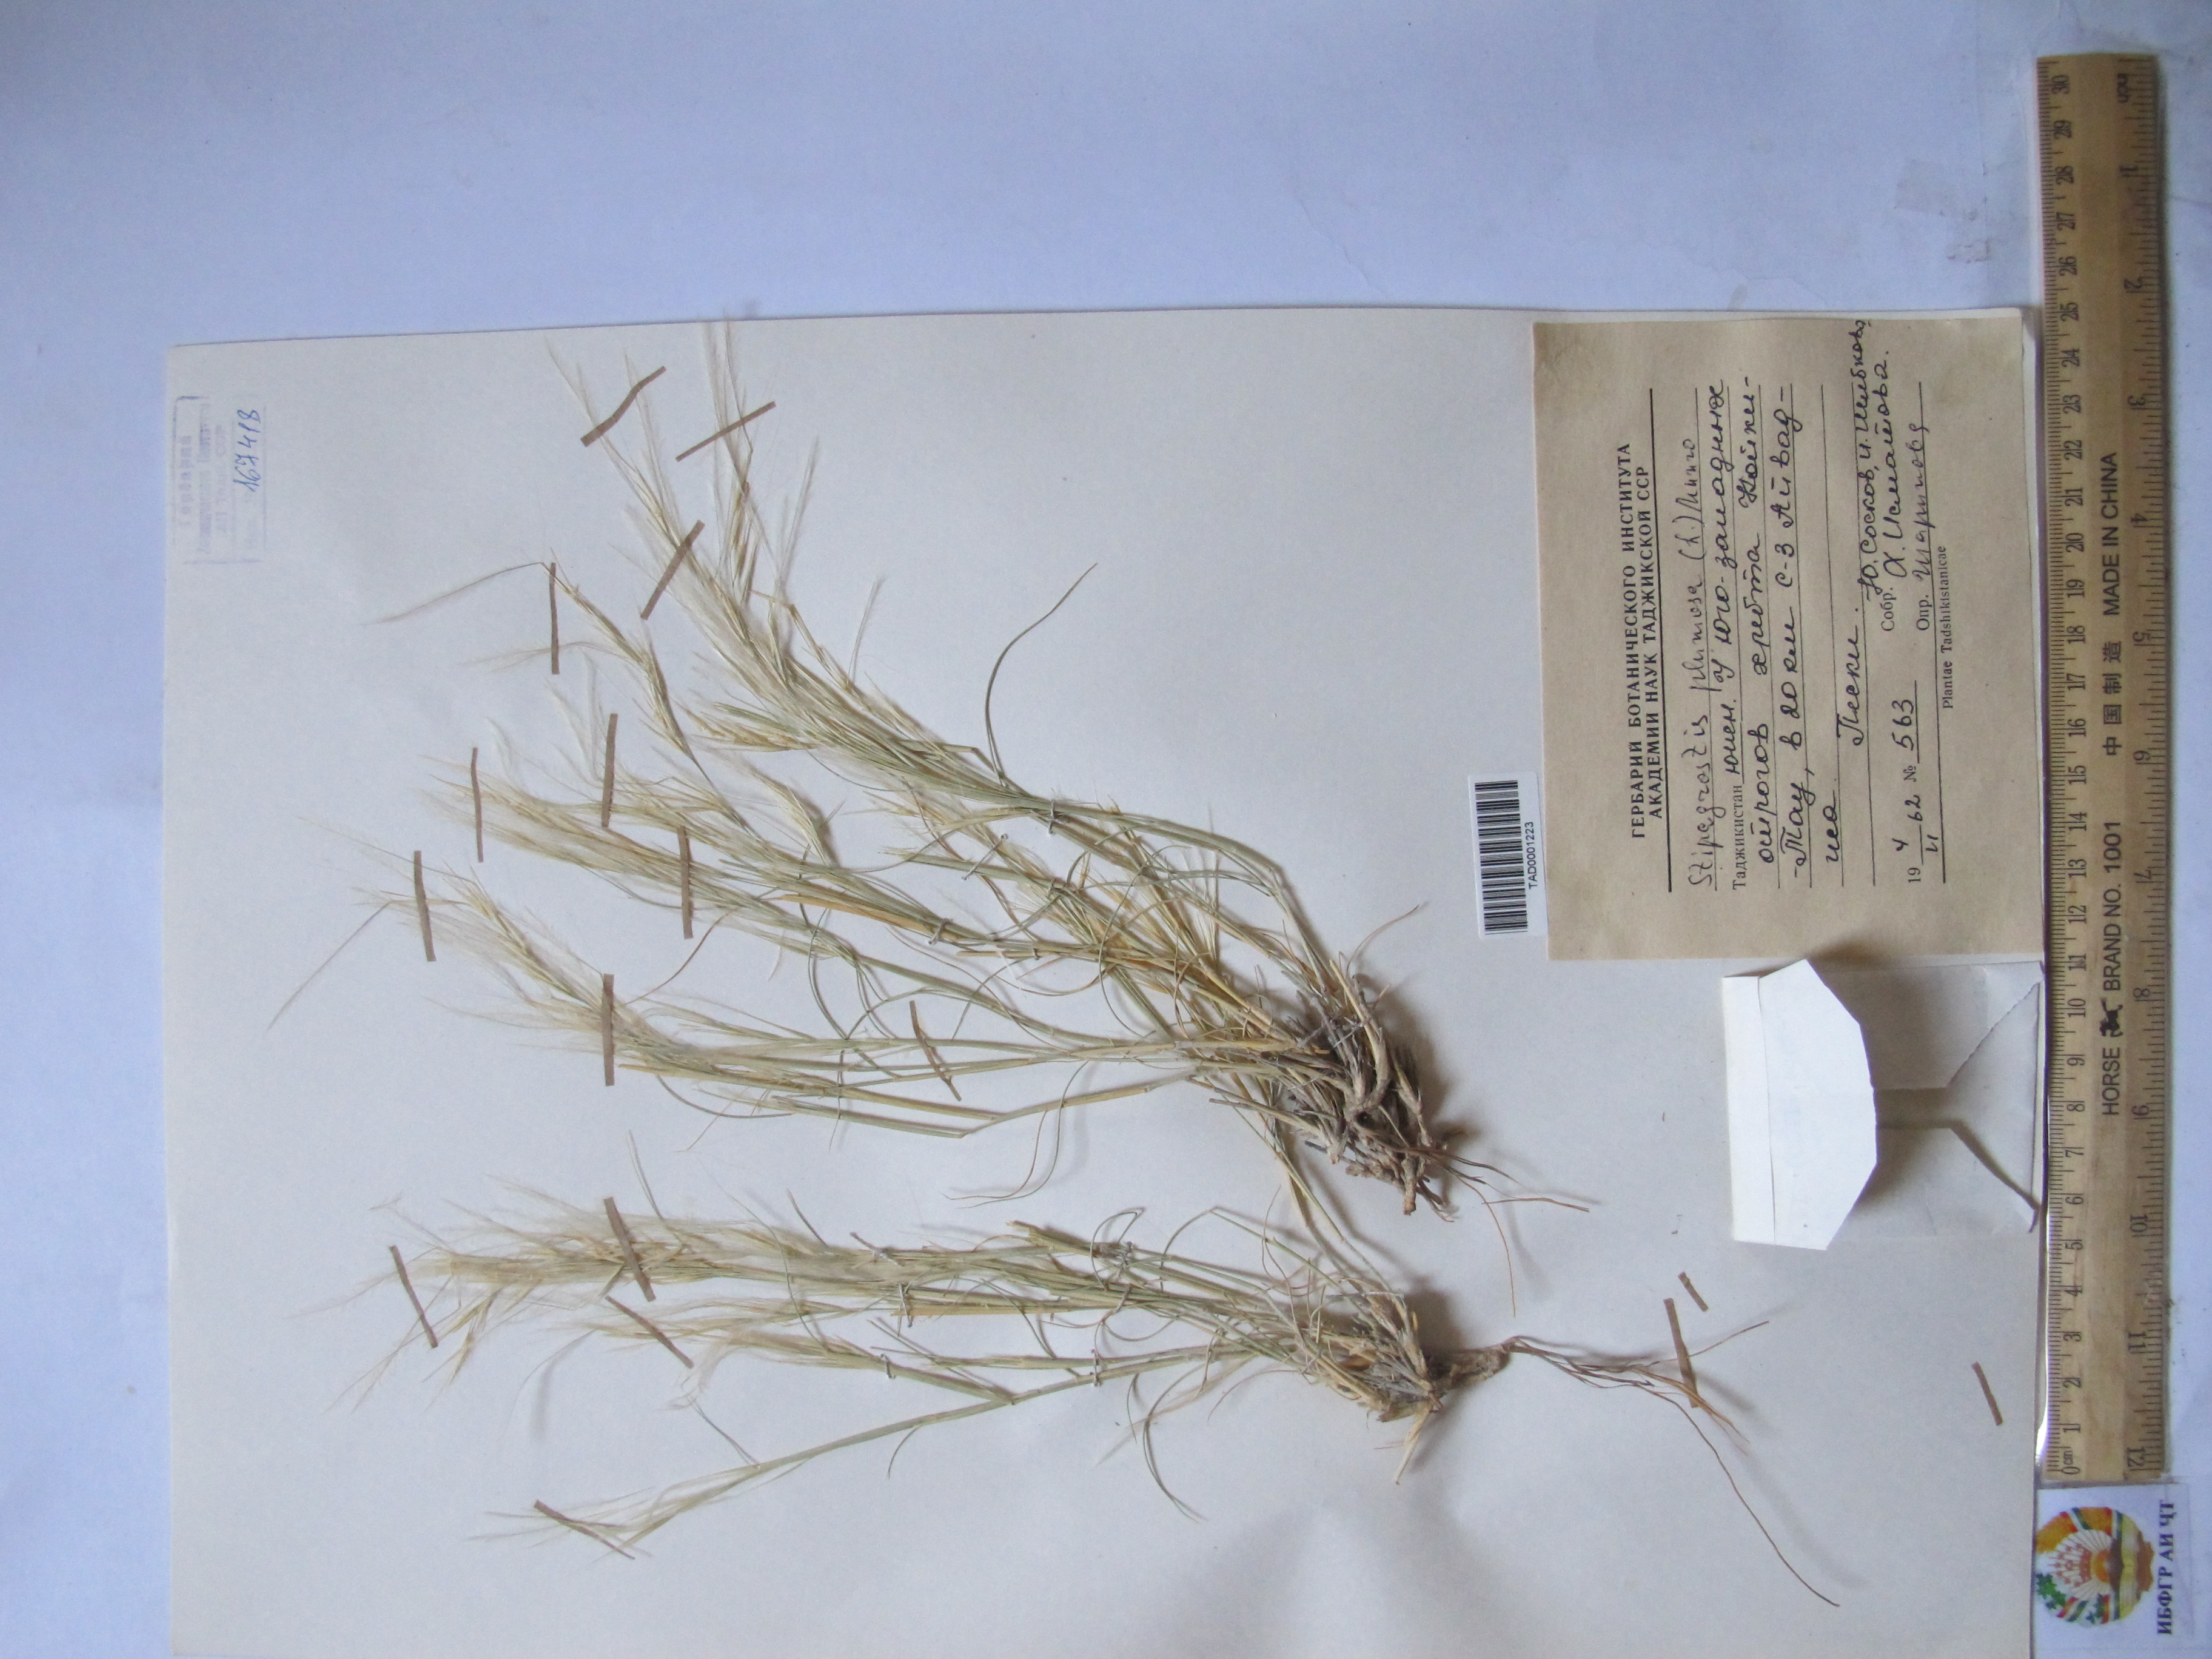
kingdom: Plantae
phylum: Tracheophyta
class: Liliopsida
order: Poales
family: Poaceae
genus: Stipagrostis
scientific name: Stipagrostis plumosa
